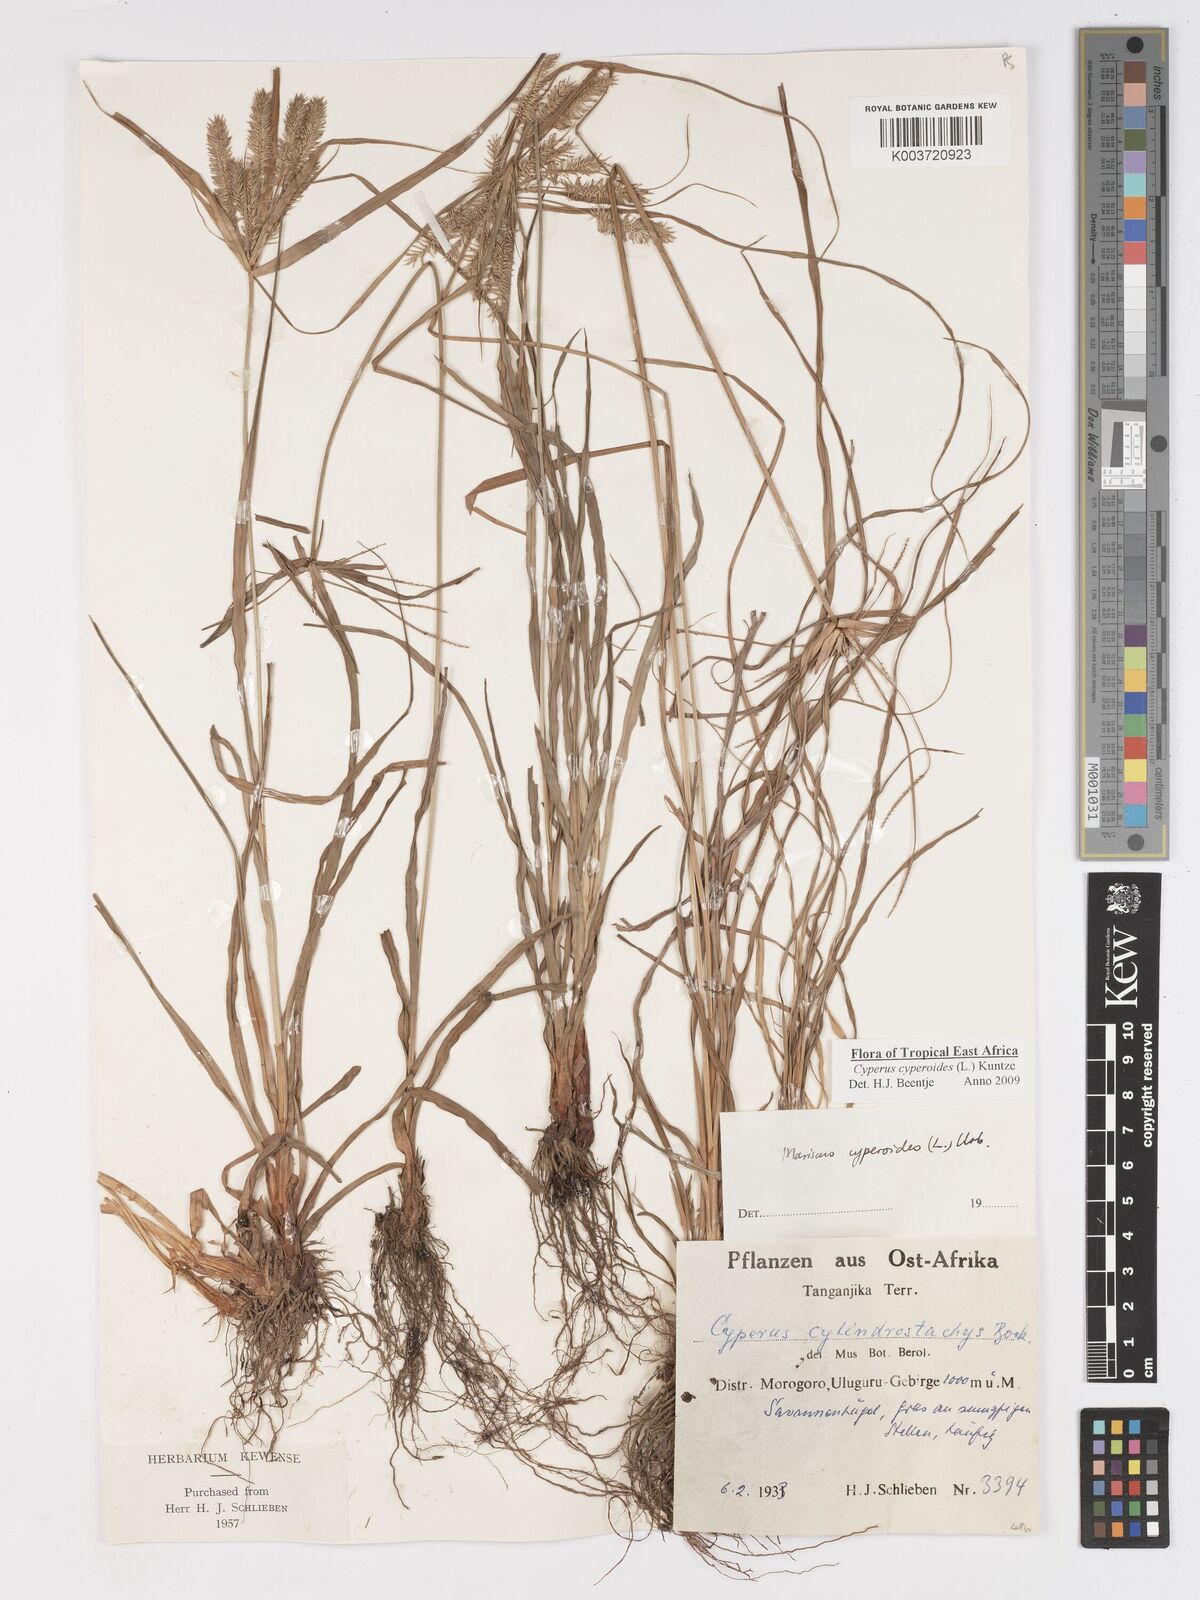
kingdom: Plantae
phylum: Tracheophyta
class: Liliopsida
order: Poales
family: Cyperaceae
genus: Cyperus
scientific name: Cyperus cyperoides
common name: Pacific island flat sedge
